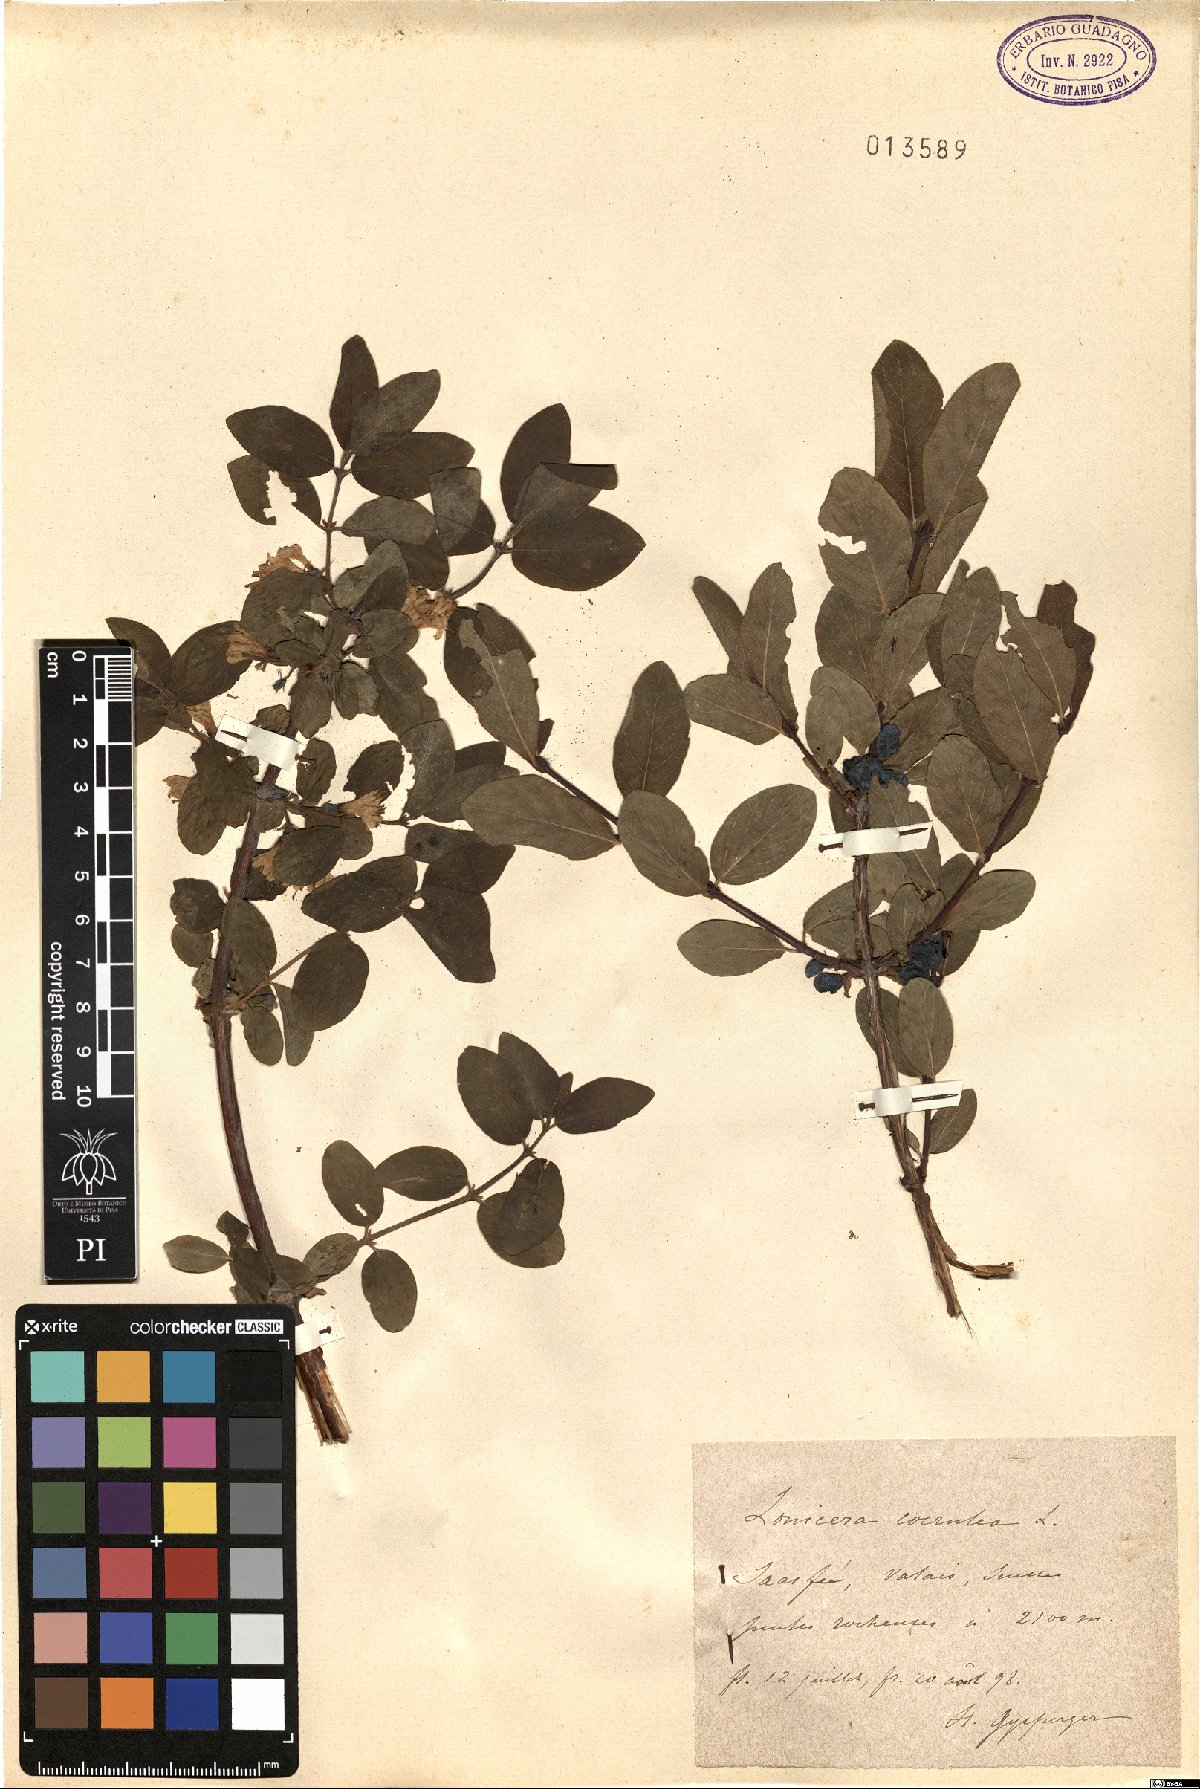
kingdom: Plantae
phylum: Tracheophyta
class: Magnoliopsida
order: Dipsacales
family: Caprifoliaceae
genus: Lonicera
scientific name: Lonicera caerulea
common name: Blue honeysuckle
